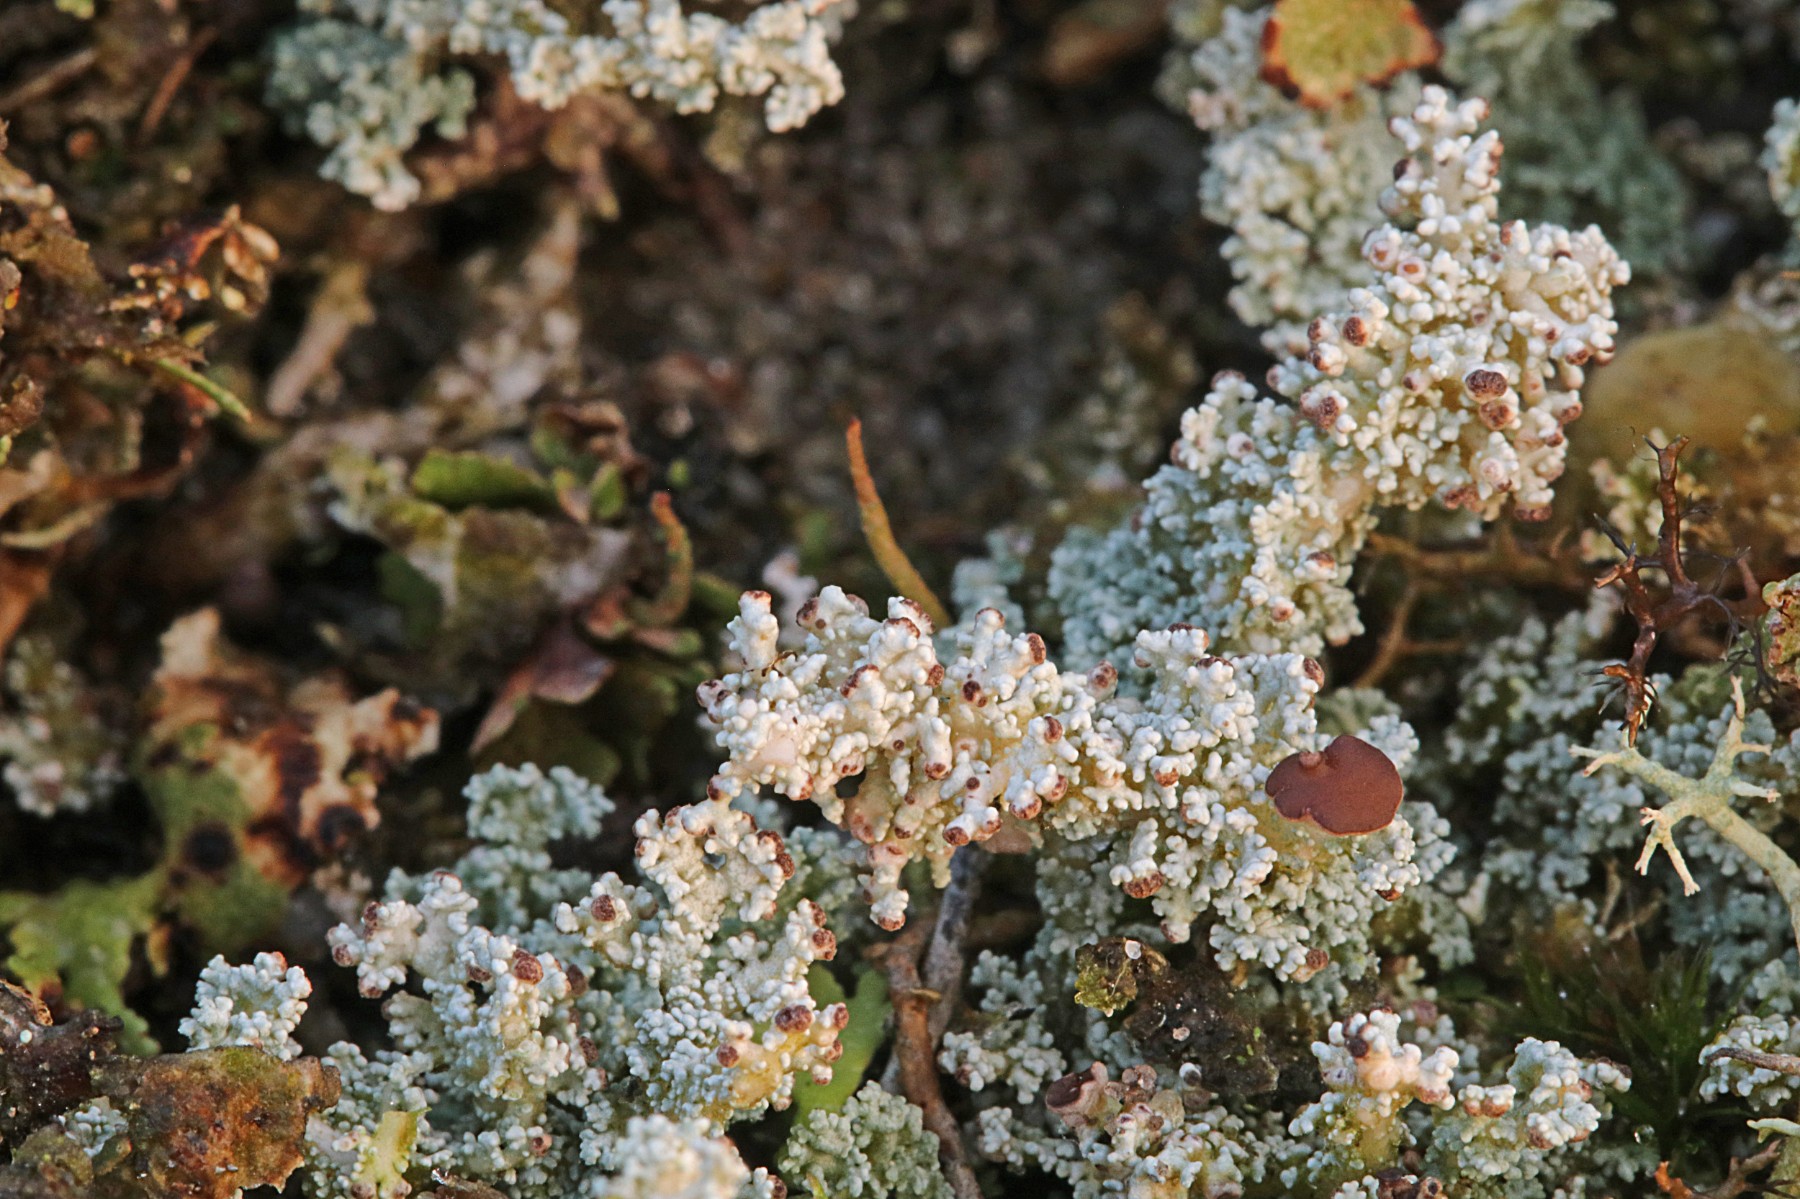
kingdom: Fungi
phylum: Ascomycota
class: Lecanoromycetes
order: Lecanorales
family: Stereocaulaceae
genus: Stereocaulon
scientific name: Stereocaulon saxatile
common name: klit-korallav
